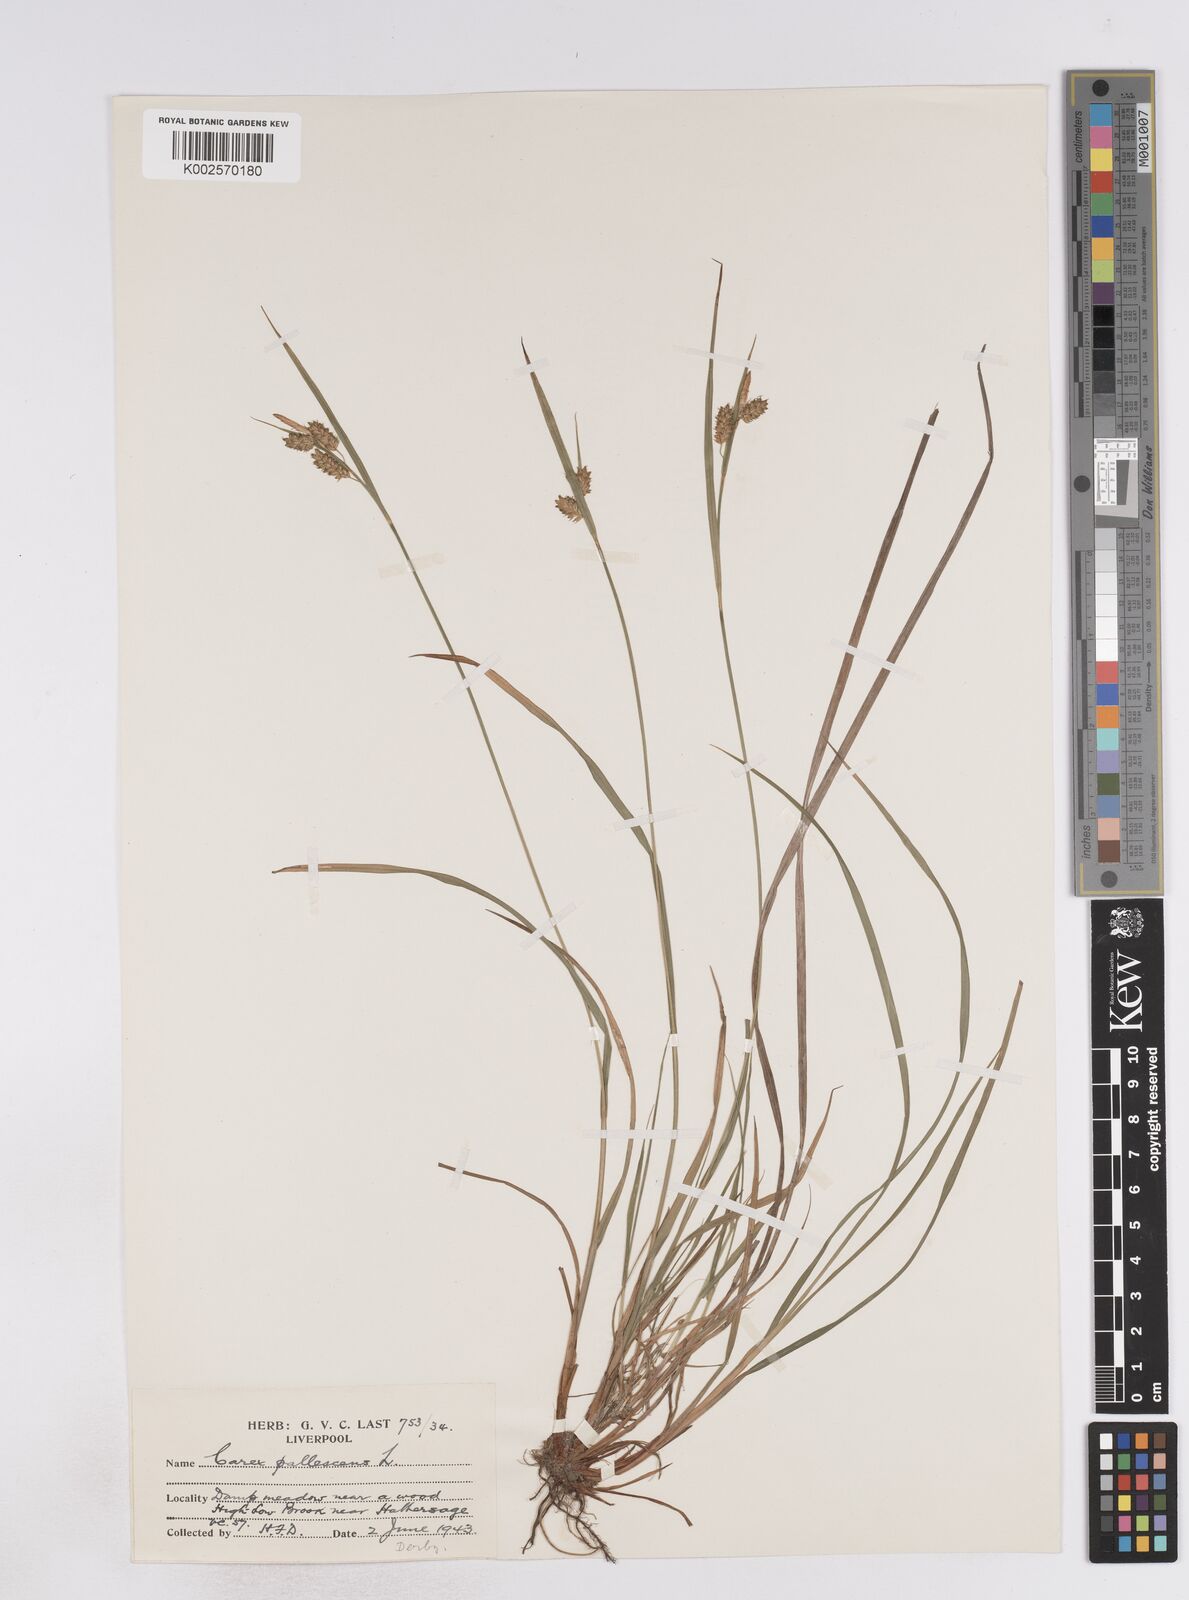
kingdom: Plantae
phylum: Tracheophyta
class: Liliopsida
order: Poales
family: Cyperaceae
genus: Carex
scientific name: Carex pallescens
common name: Pale sedge
